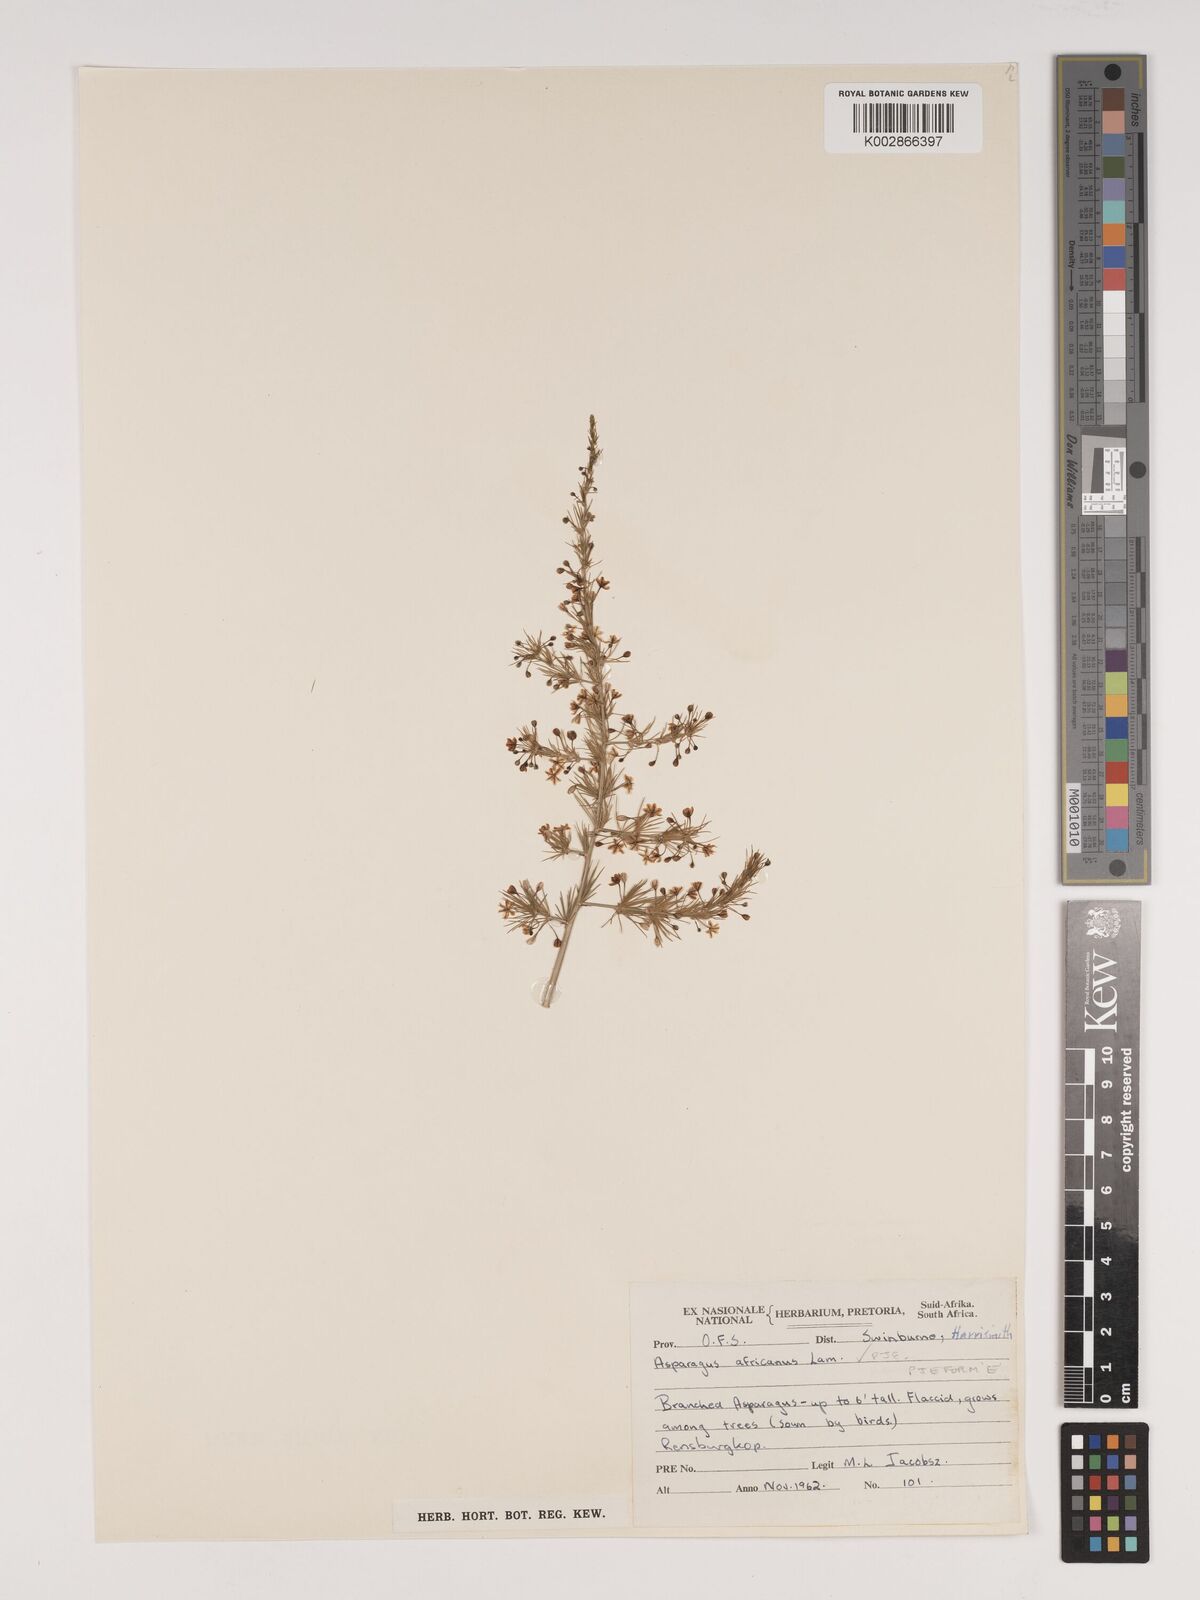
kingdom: Plantae
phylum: Tracheophyta
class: Liliopsida
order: Asparagales
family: Asparagaceae
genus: Asparagus
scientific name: Asparagus africanus
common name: Asparagus-fern
